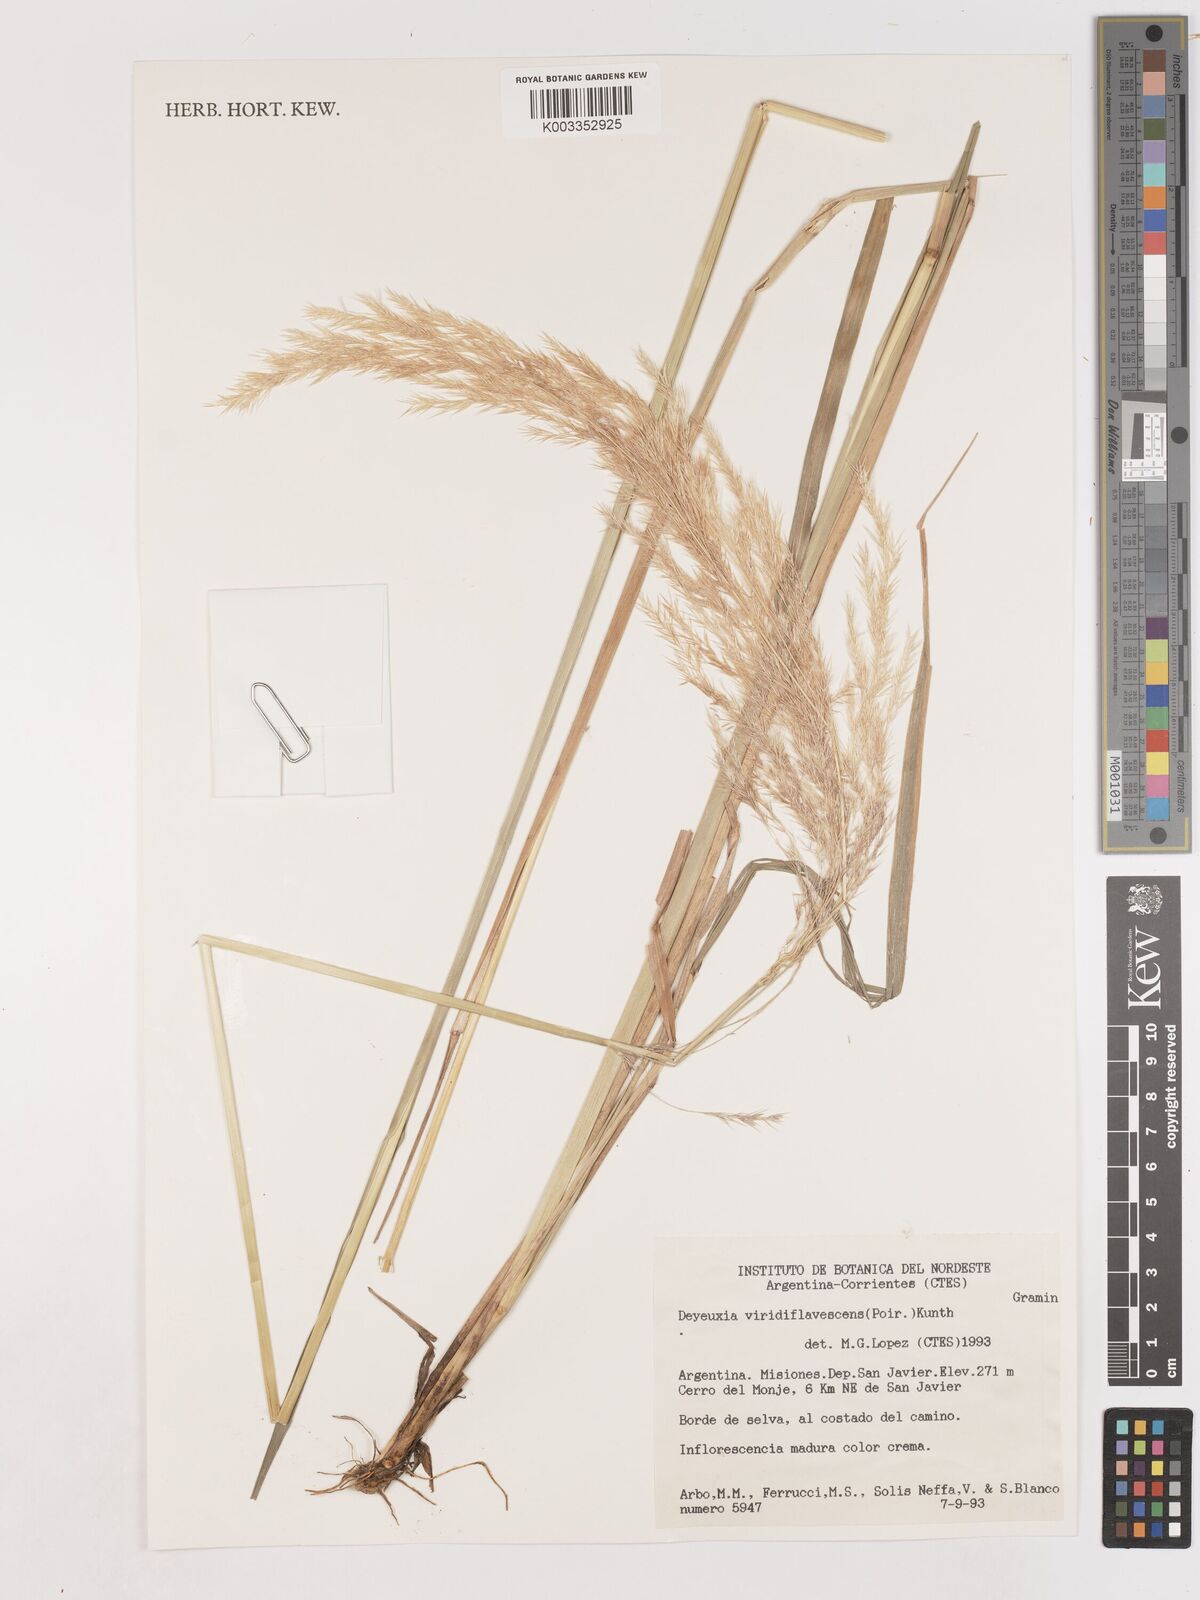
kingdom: Plantae
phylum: Tracheophyta
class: Liliopsida
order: Poales
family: Poaceae
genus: Cinnagrostis
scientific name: Cinnagrostis viridiflavescens
